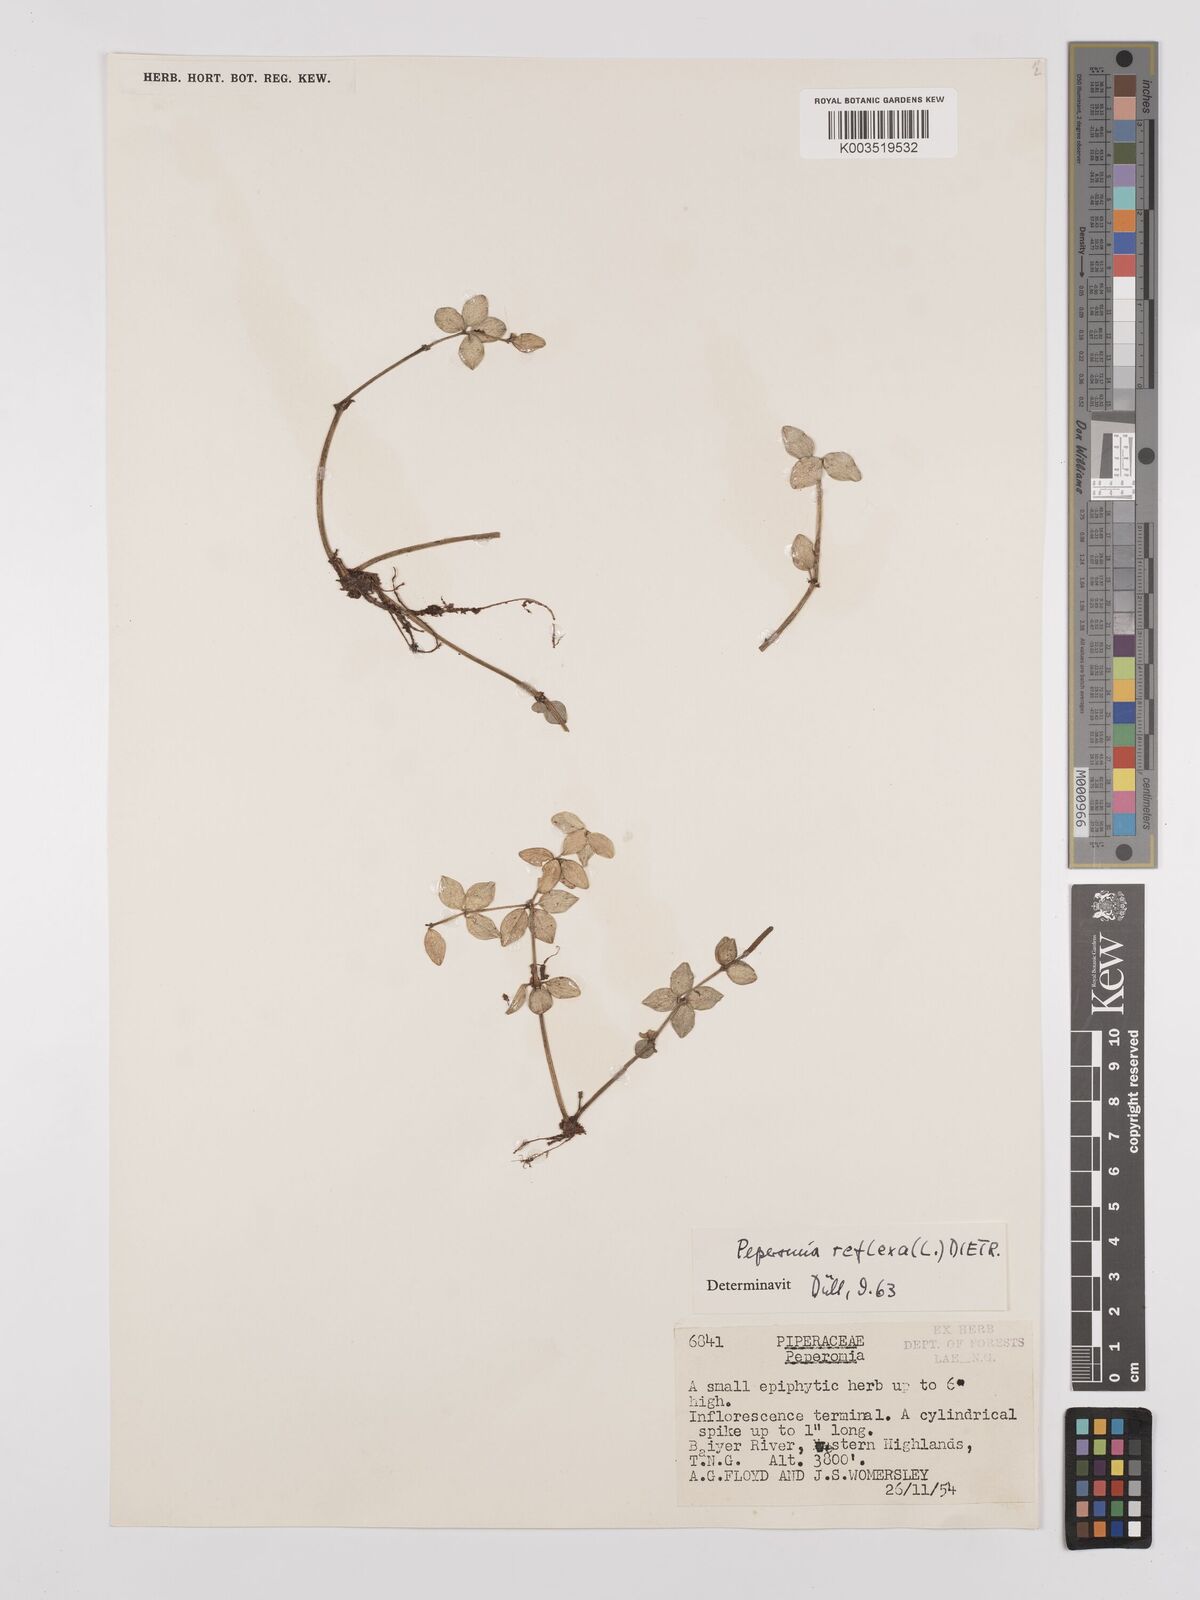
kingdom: Plantae
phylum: Tracheophyta
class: Magnoliopsida
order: Piperales
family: Piperaceae
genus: Peperomia
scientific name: Peperomia tetraphylla
